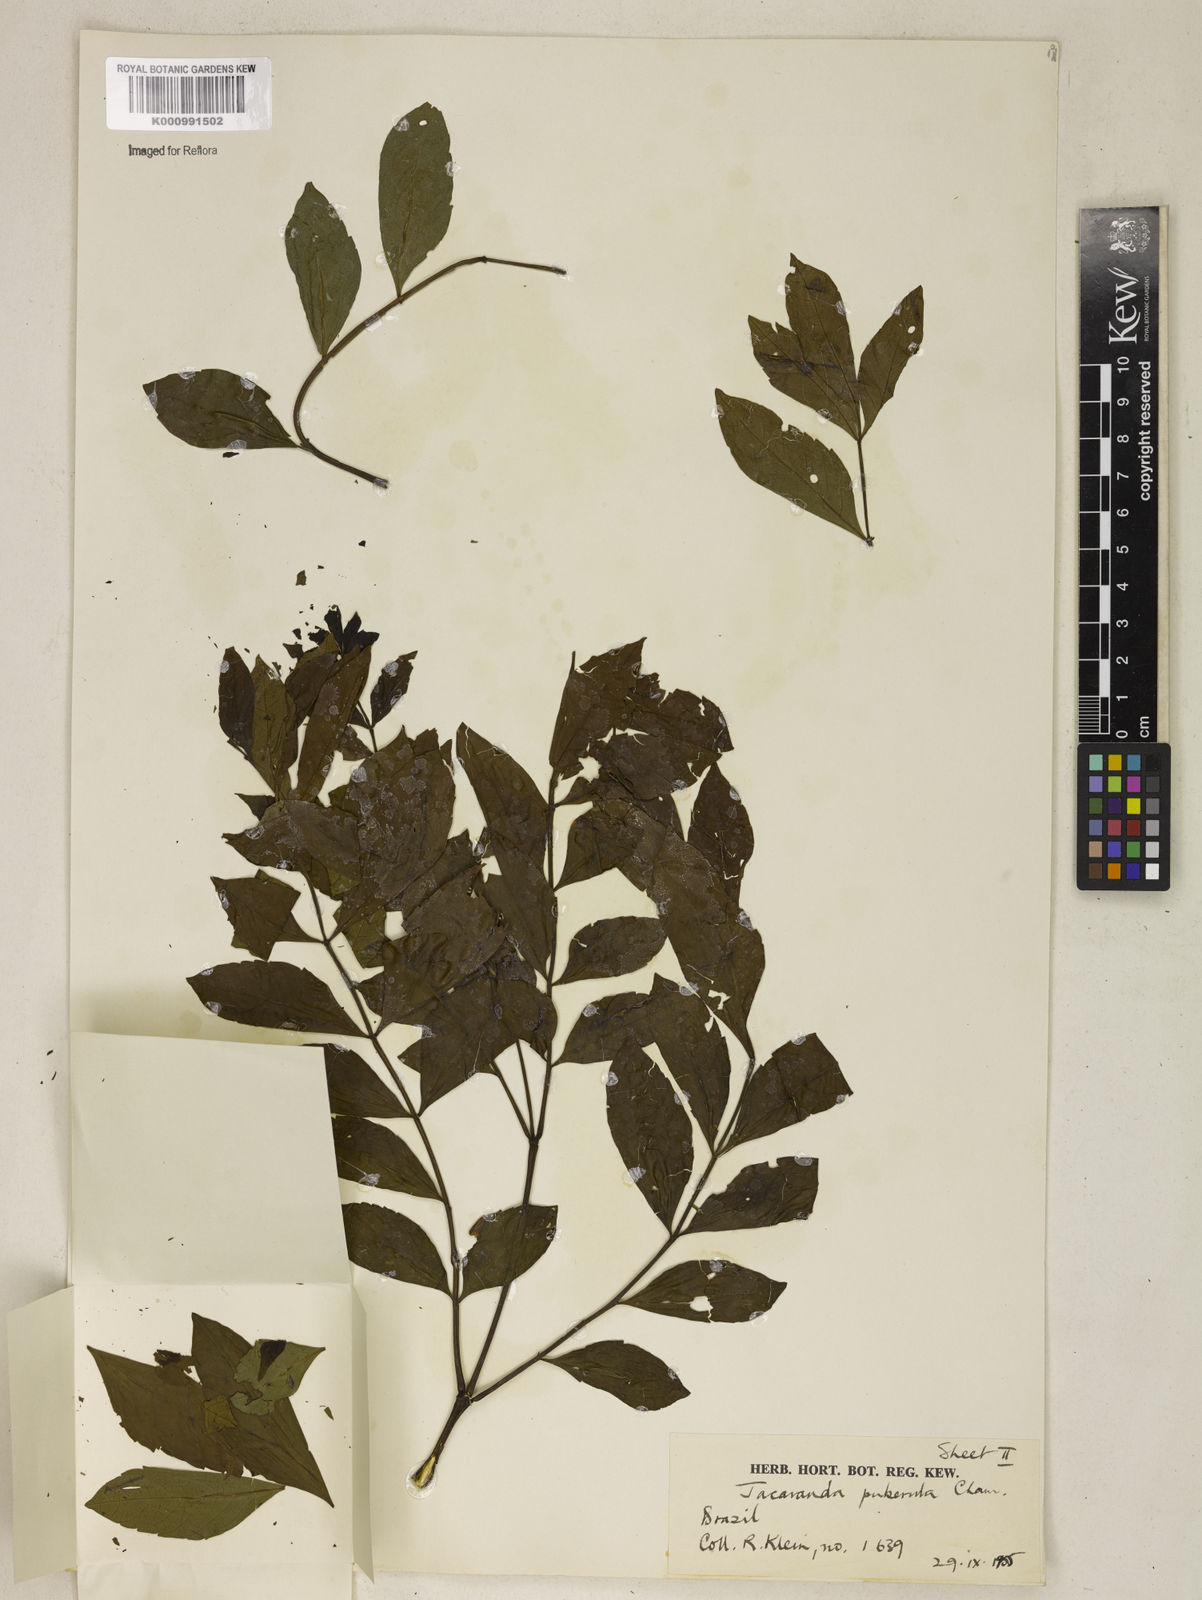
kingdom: Plantae
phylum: Tracheophyta
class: Magnoliopsida
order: Lamiales
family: Bignoniaceae
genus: Jacaranda
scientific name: Jacaranda puberula
